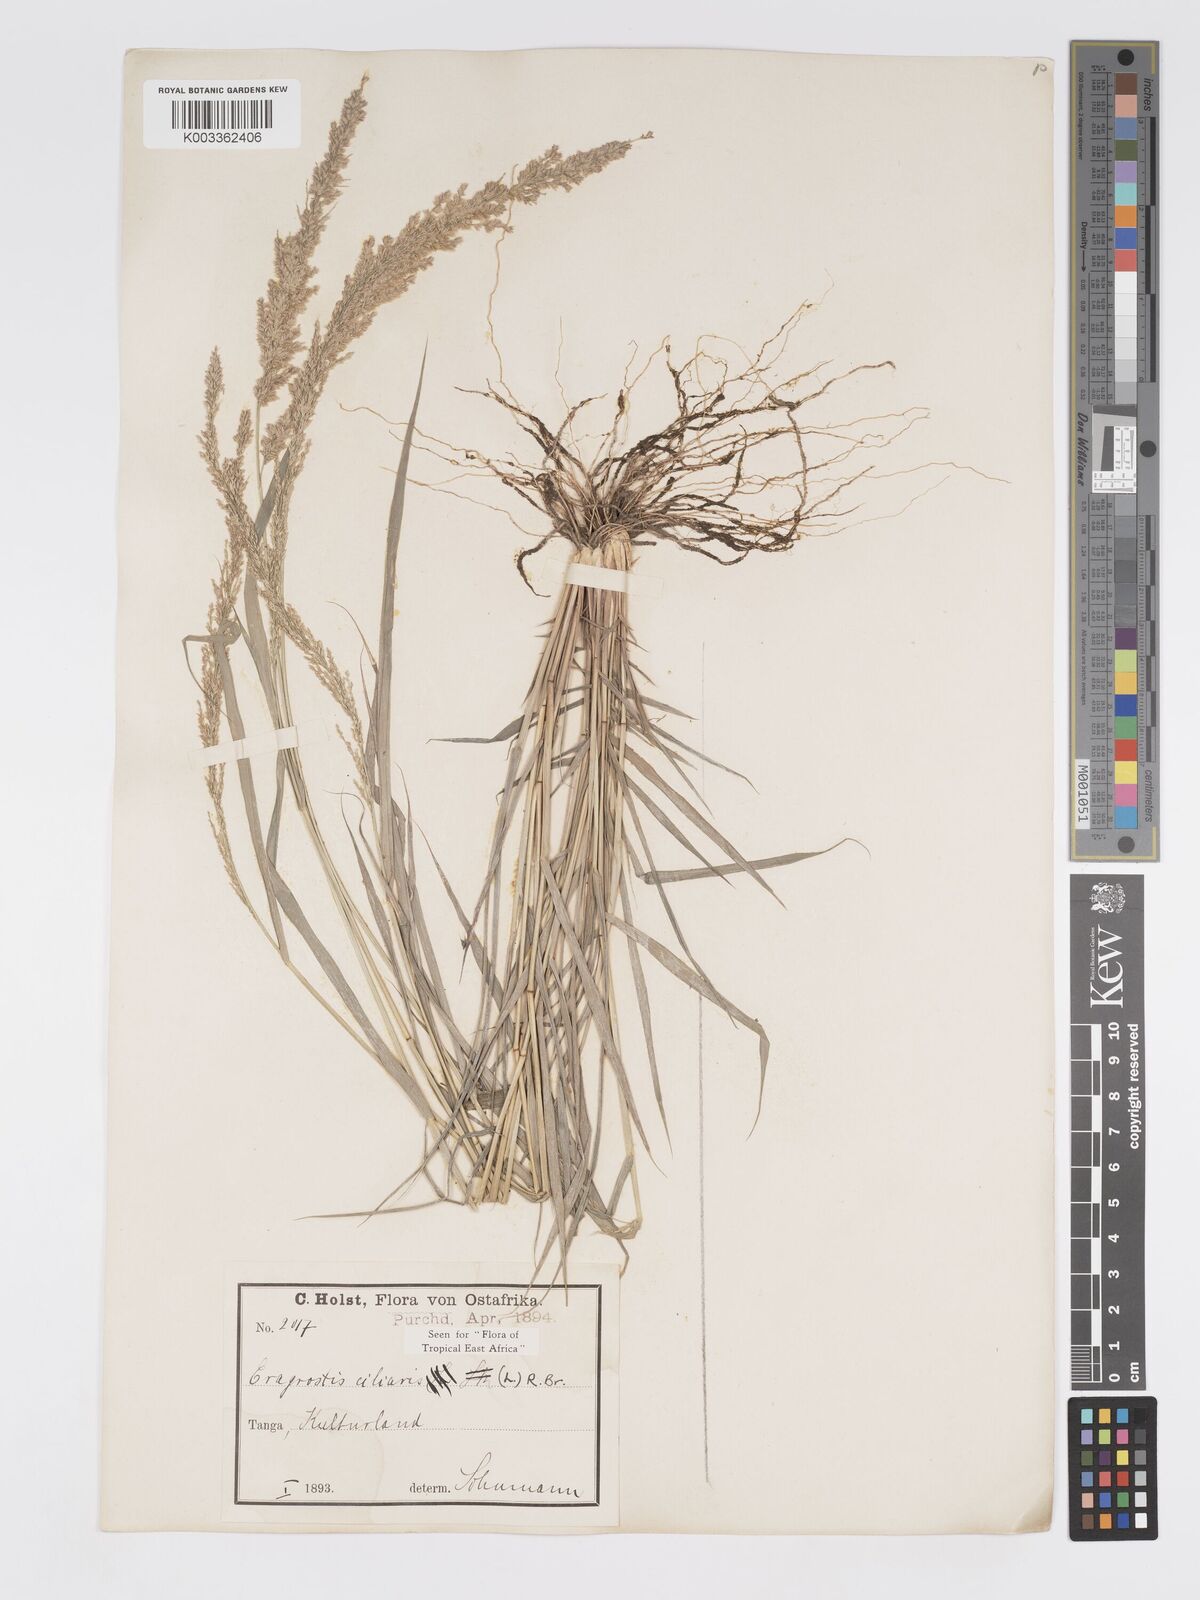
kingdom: Plantae
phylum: Tracheophyta
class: Liliopsida
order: Poales
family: Poaceae
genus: Eragrostis
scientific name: Eragrostis ciliaris
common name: Gophertail lovegrass
